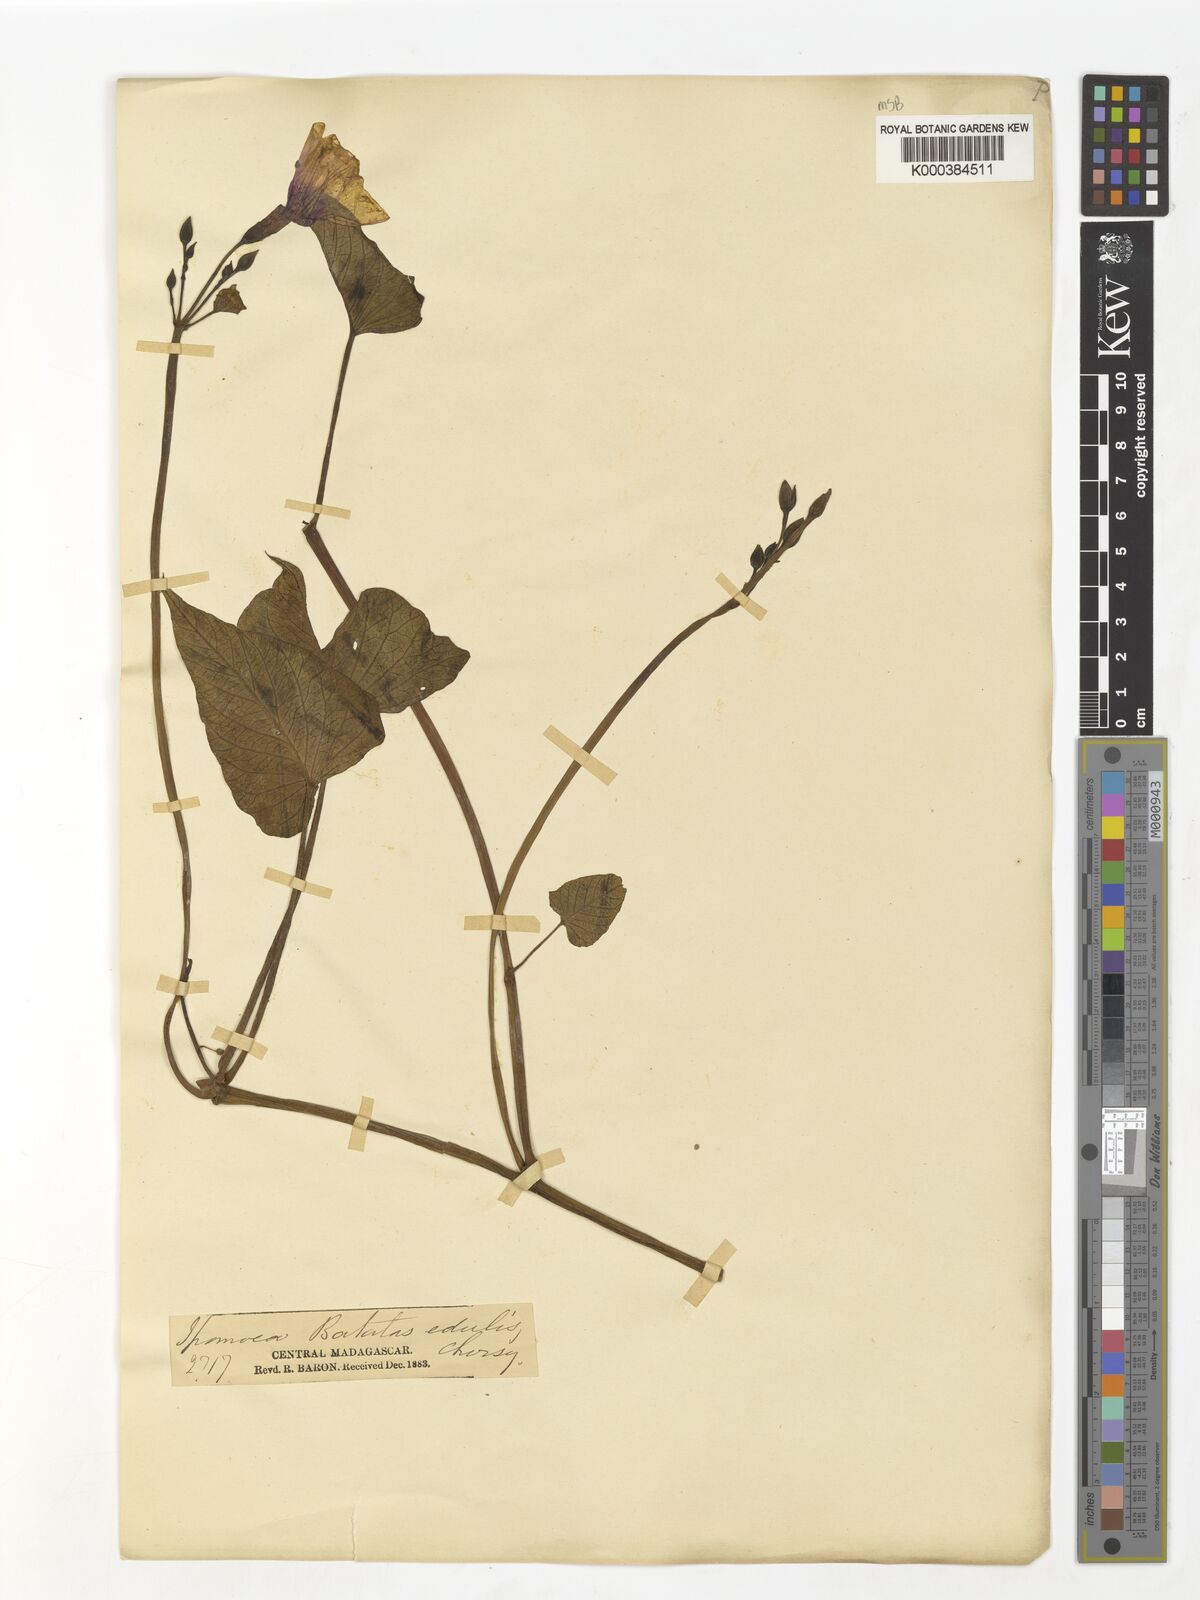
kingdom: Plantae
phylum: Tracheophyta
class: Magnoliopsida
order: Solanales
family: Convolvulaceae
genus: Ipomoea
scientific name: Ipomoea
